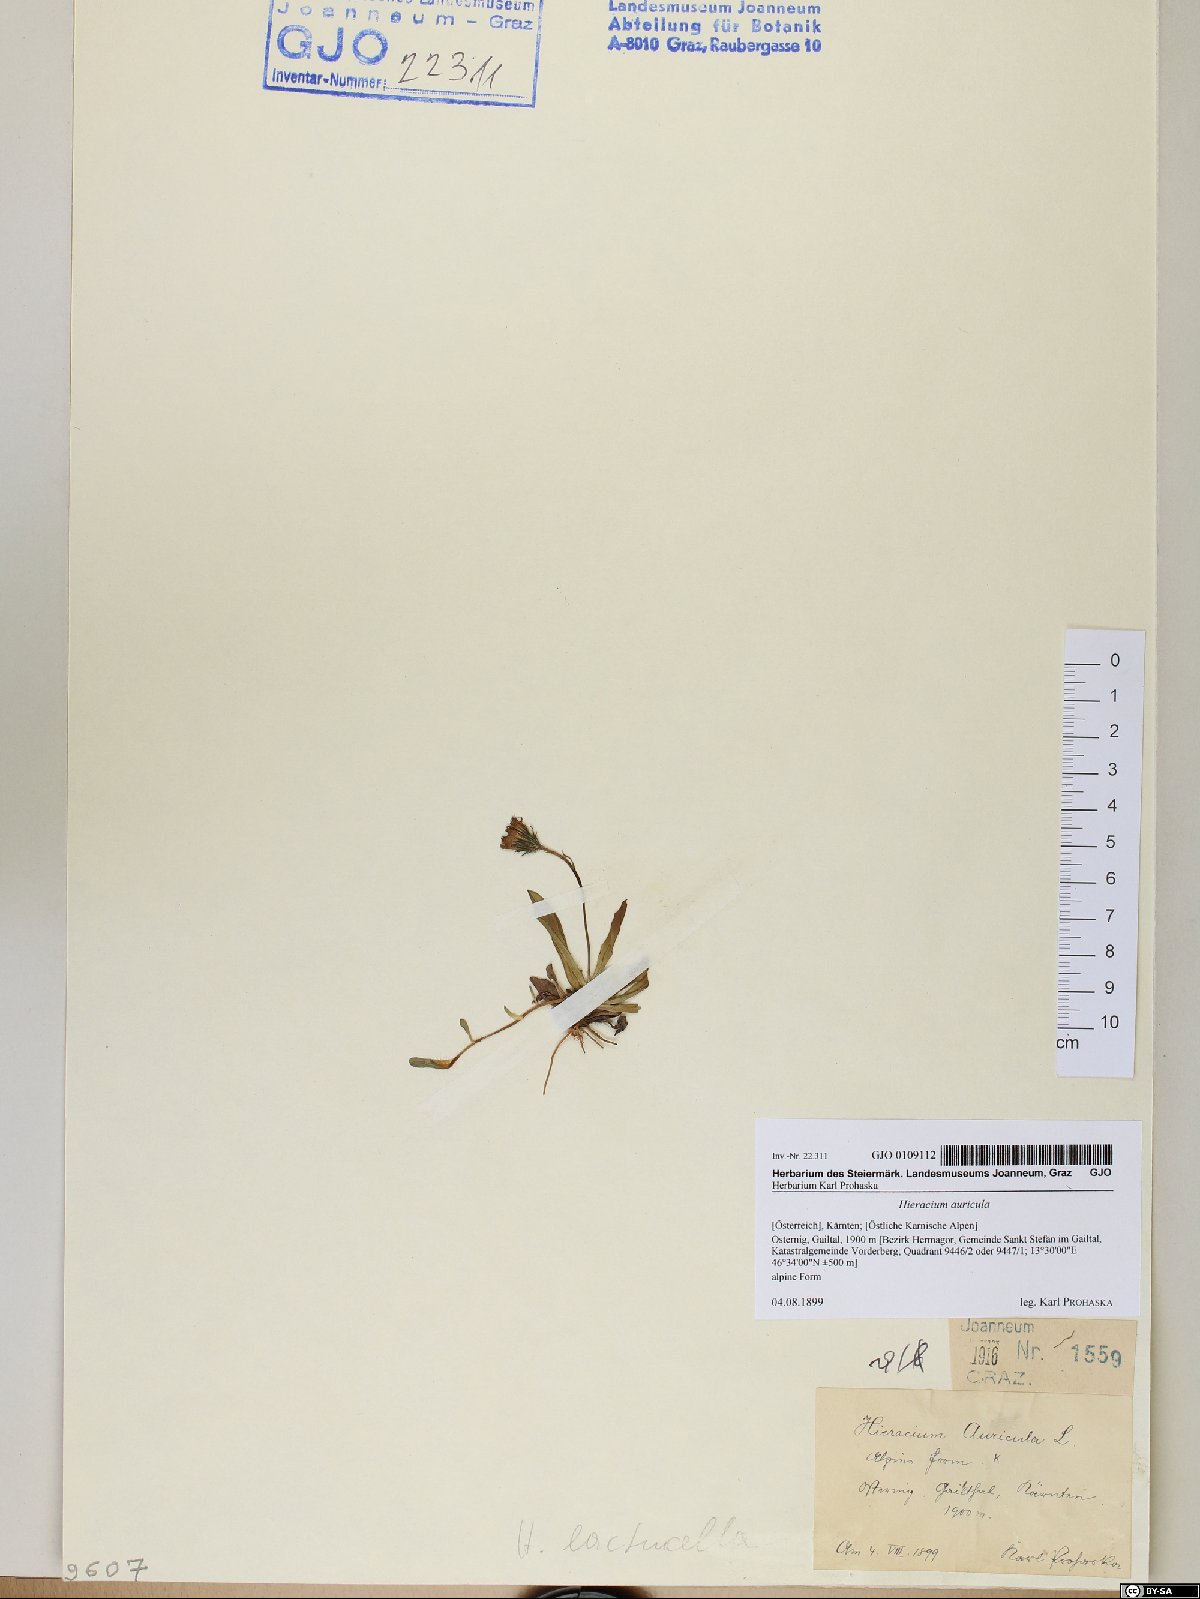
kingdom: Plantae
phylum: Tracheophyta
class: Magnoliopsida
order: Asterales
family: Asteraceae
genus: Hieracium
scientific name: Hieracium auricula
